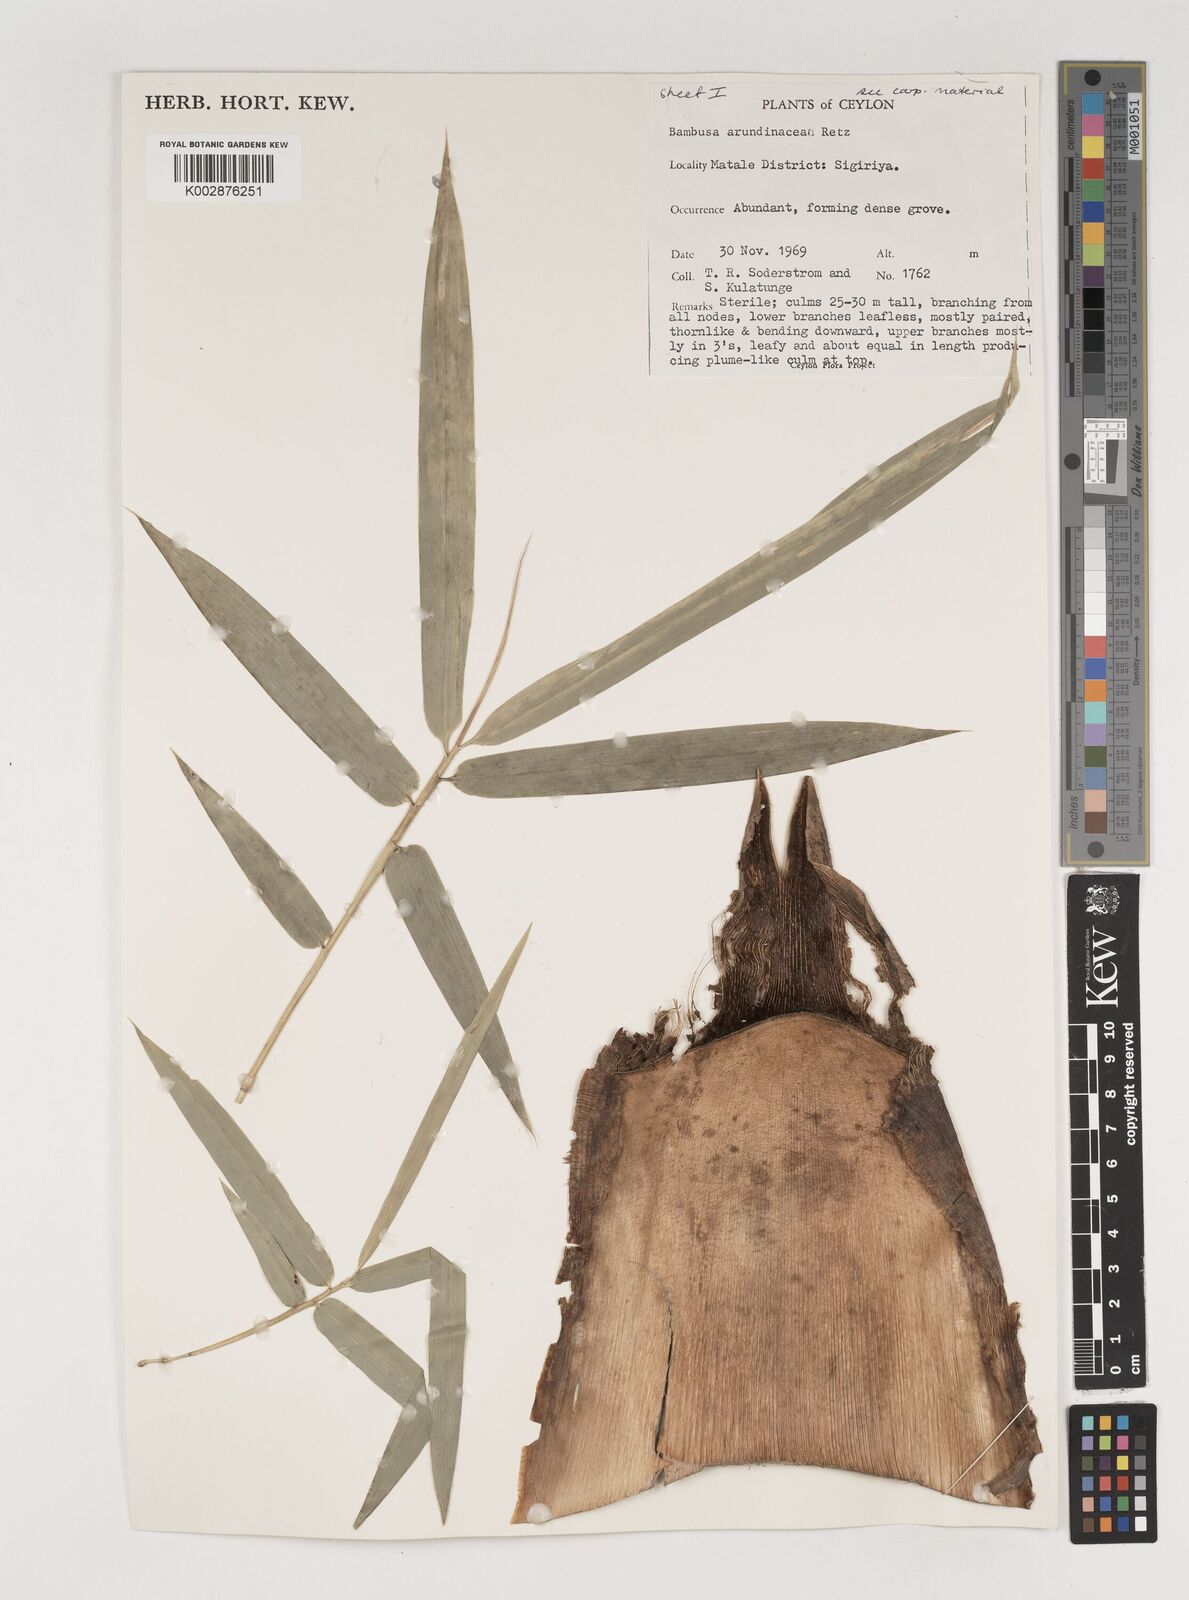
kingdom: Plantae
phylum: Tracheophyta
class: Liliopsida
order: Poales
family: Poaceae
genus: Bambusa
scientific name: Bambusa bambos
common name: Indian thorny bamboo
